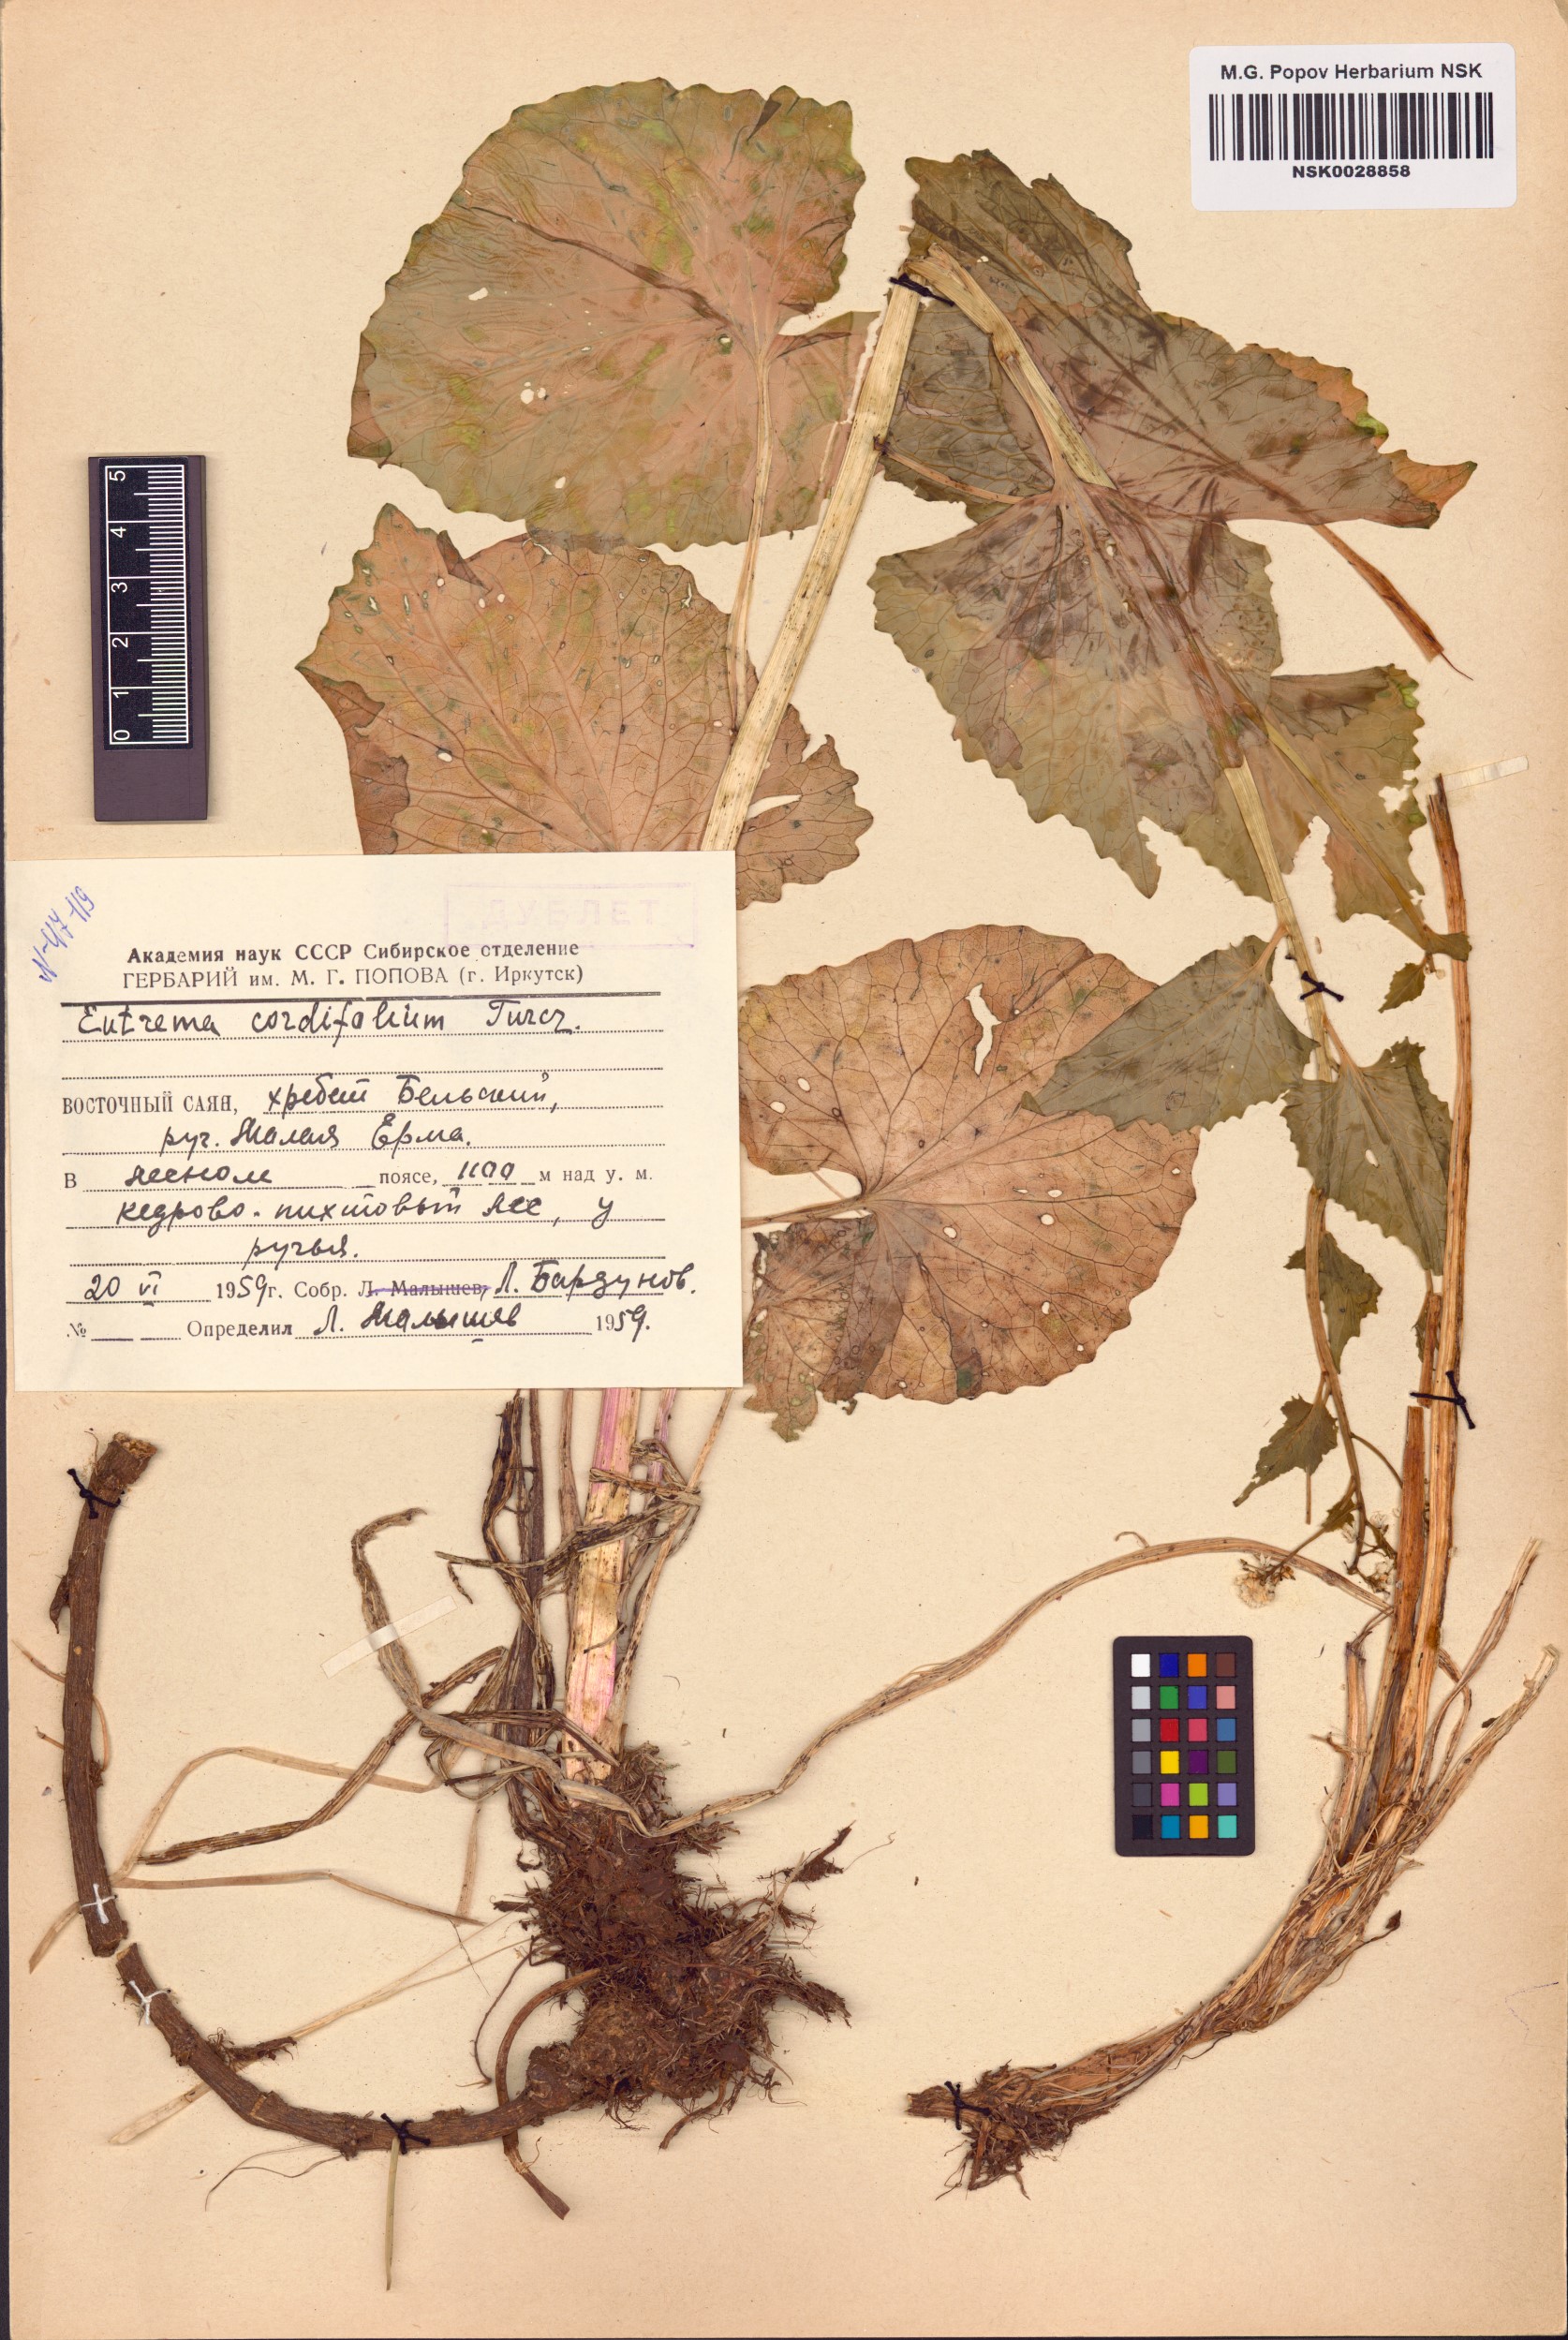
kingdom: Plantae
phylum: Tracheophyta
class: Magnoliopsida
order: Brassicales
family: Brassicaceae
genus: Eutrema
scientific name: Eutrema cordifolium
